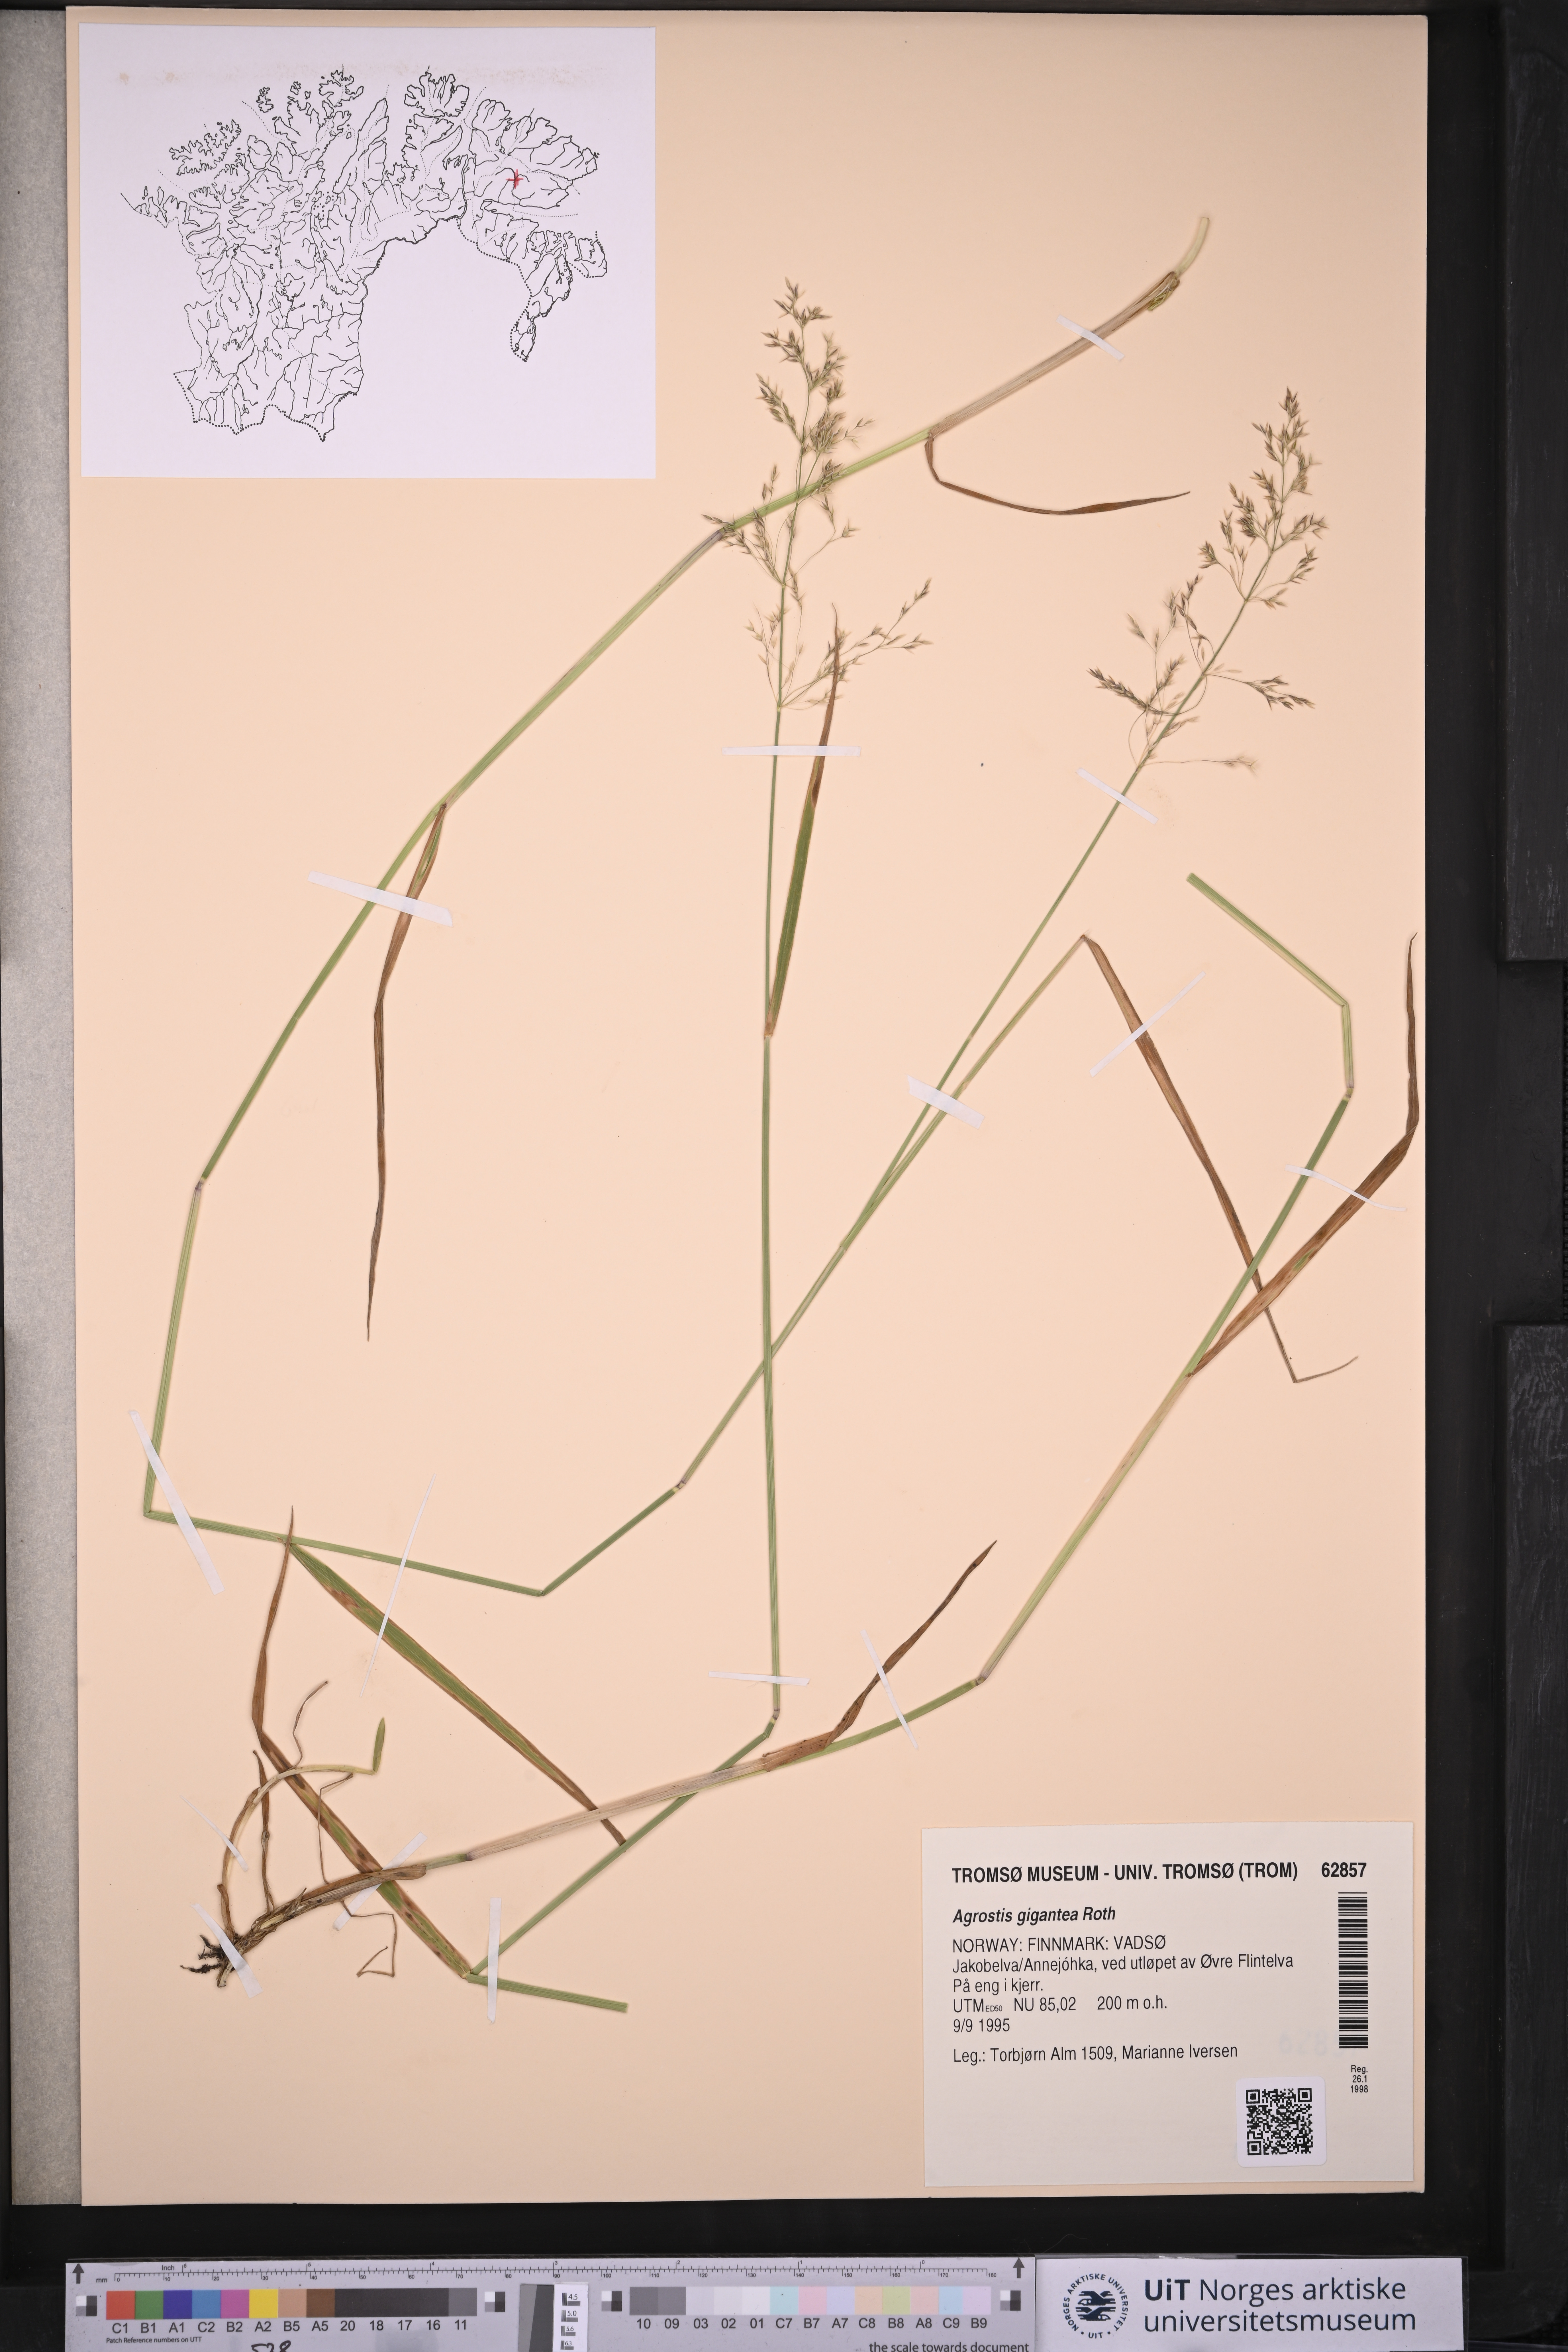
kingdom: Plantae
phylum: Tracheophyta
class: Liliopsida
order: Poales
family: Poaceae
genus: Agrostis
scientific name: Agrostis gigantea
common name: Black bent
